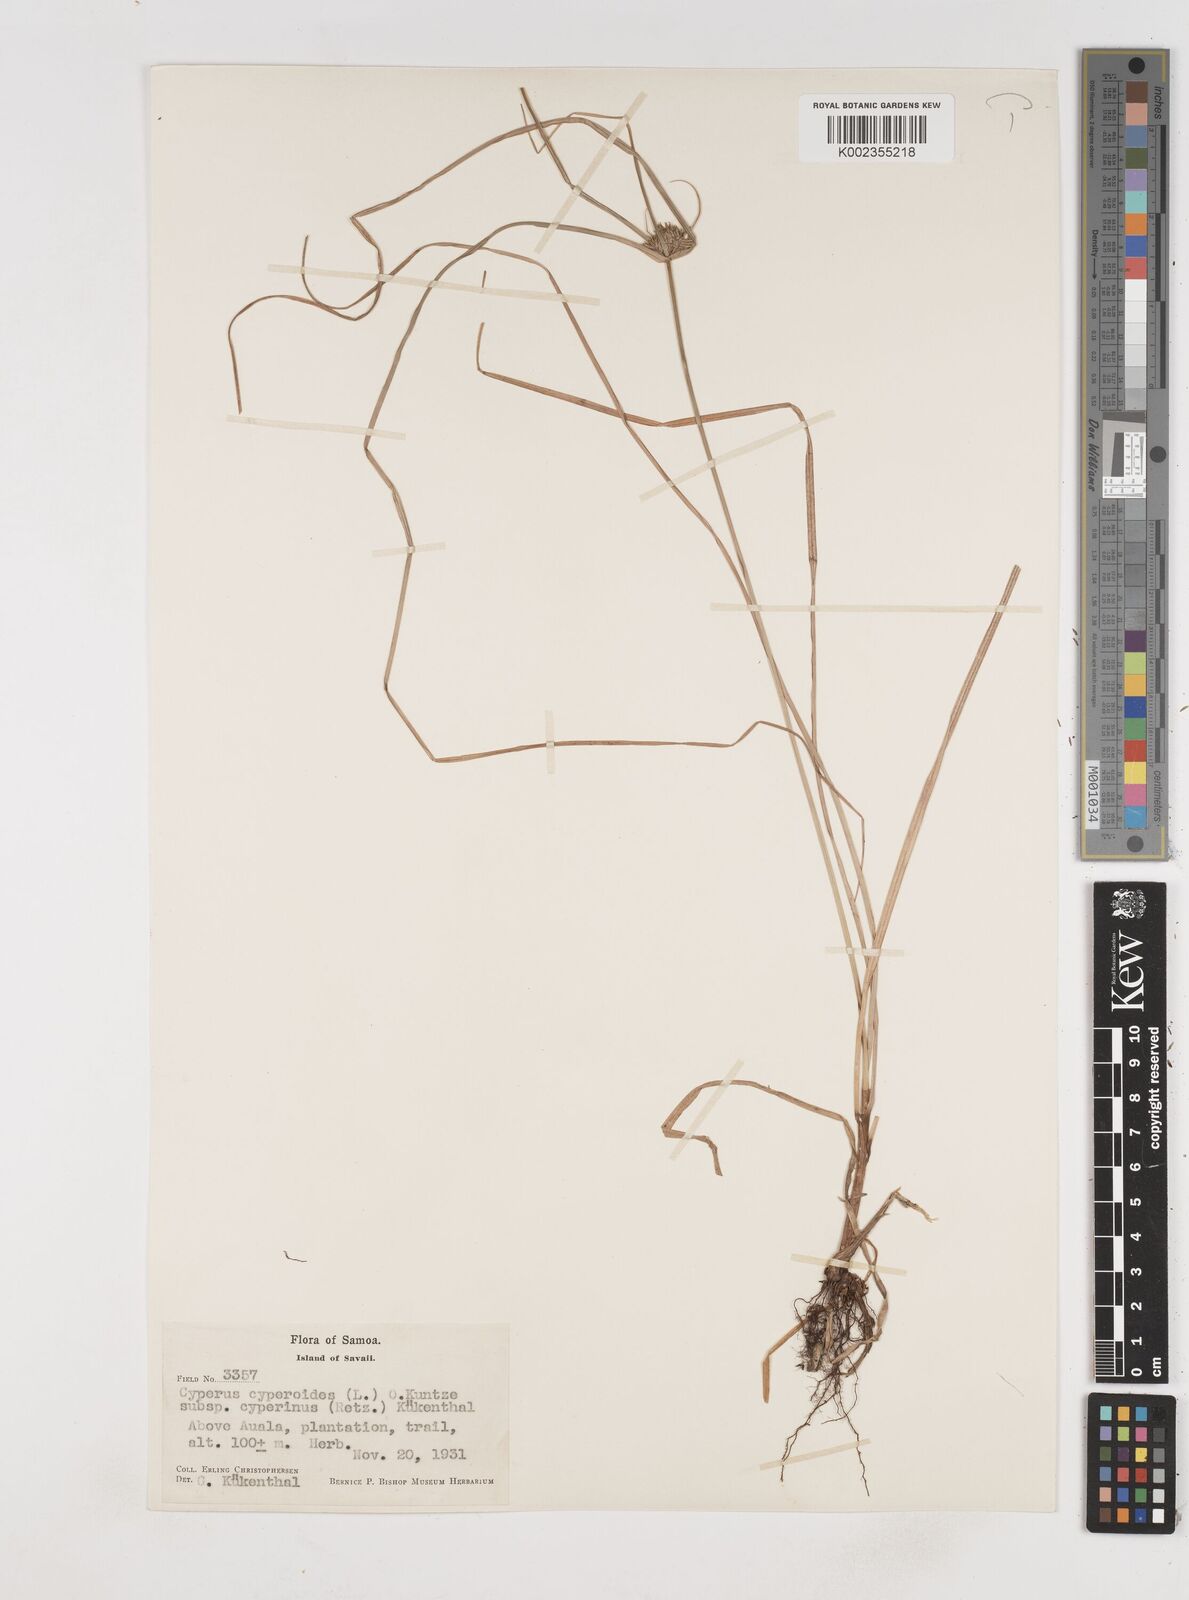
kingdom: Plantae
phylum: Tracheophyta
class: Liliopsida
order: Poales
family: Cyperaceae
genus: Cyperus
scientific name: Cyperus cyperinus
